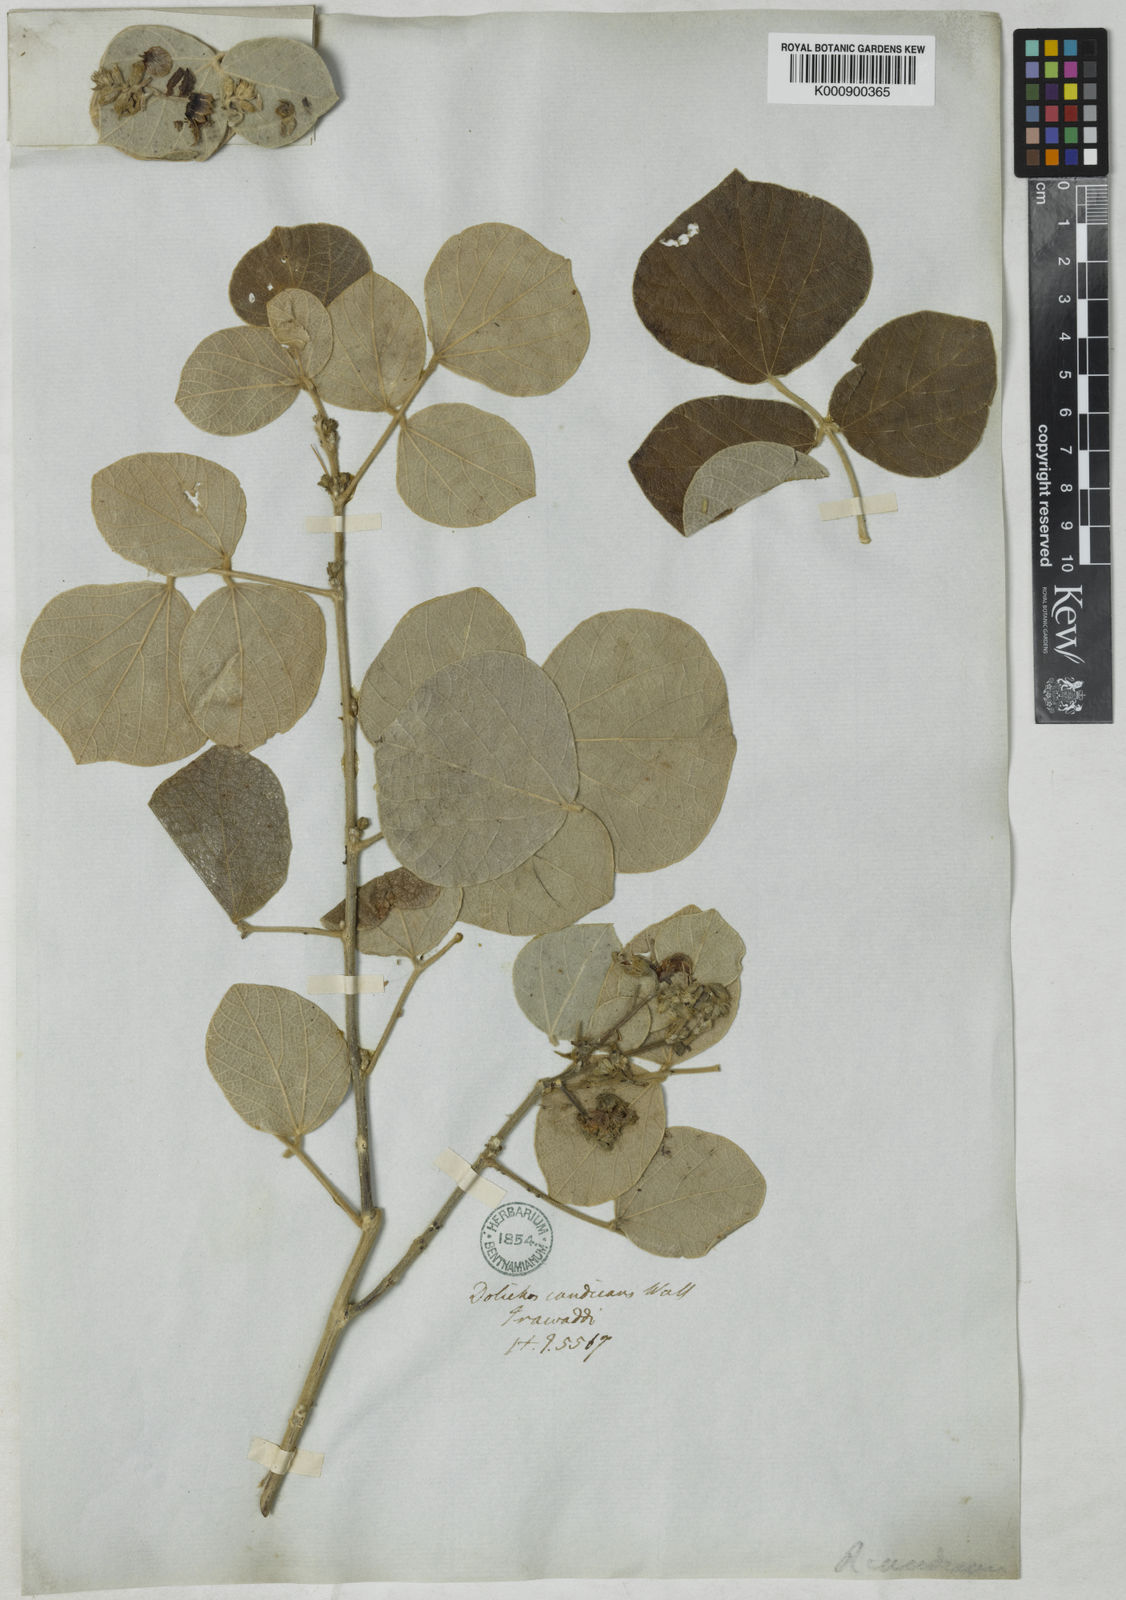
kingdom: Plantae
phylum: Tracheophyta
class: Magnoliopsida
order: Fabales
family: Fabaceae
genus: Rhynchosia
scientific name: Rhynchosia
